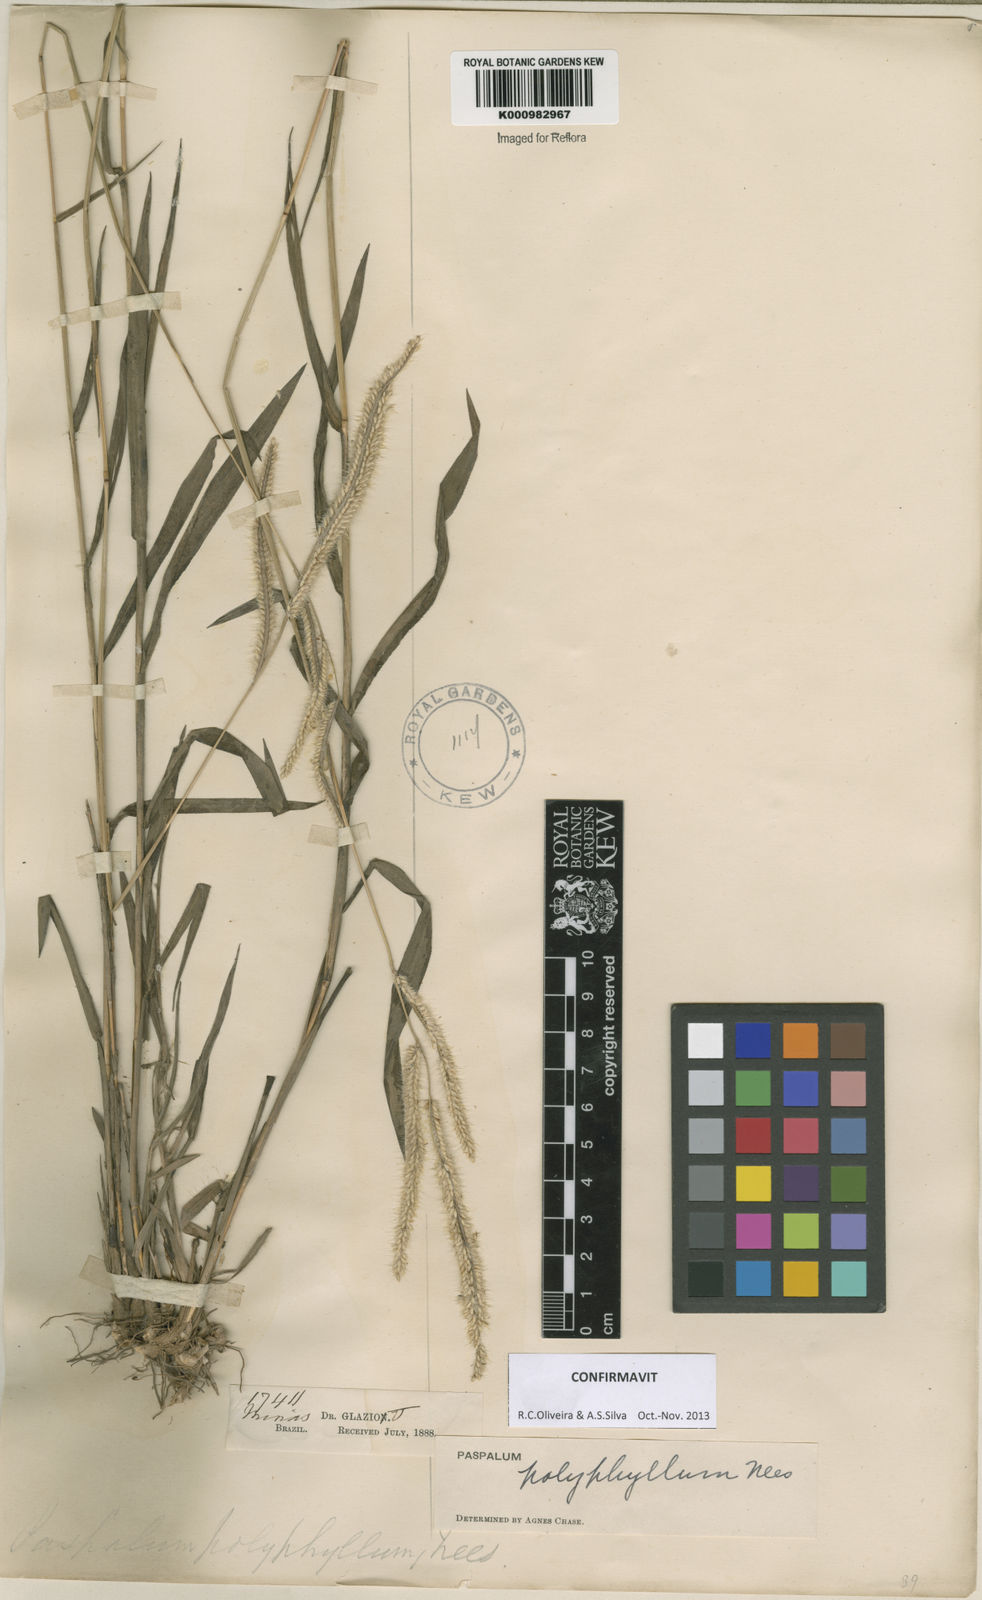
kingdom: Plantae
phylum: Tracheophyta
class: Liliopsida
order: Poales
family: Poaceae
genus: Paspalum
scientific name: Paspalum
